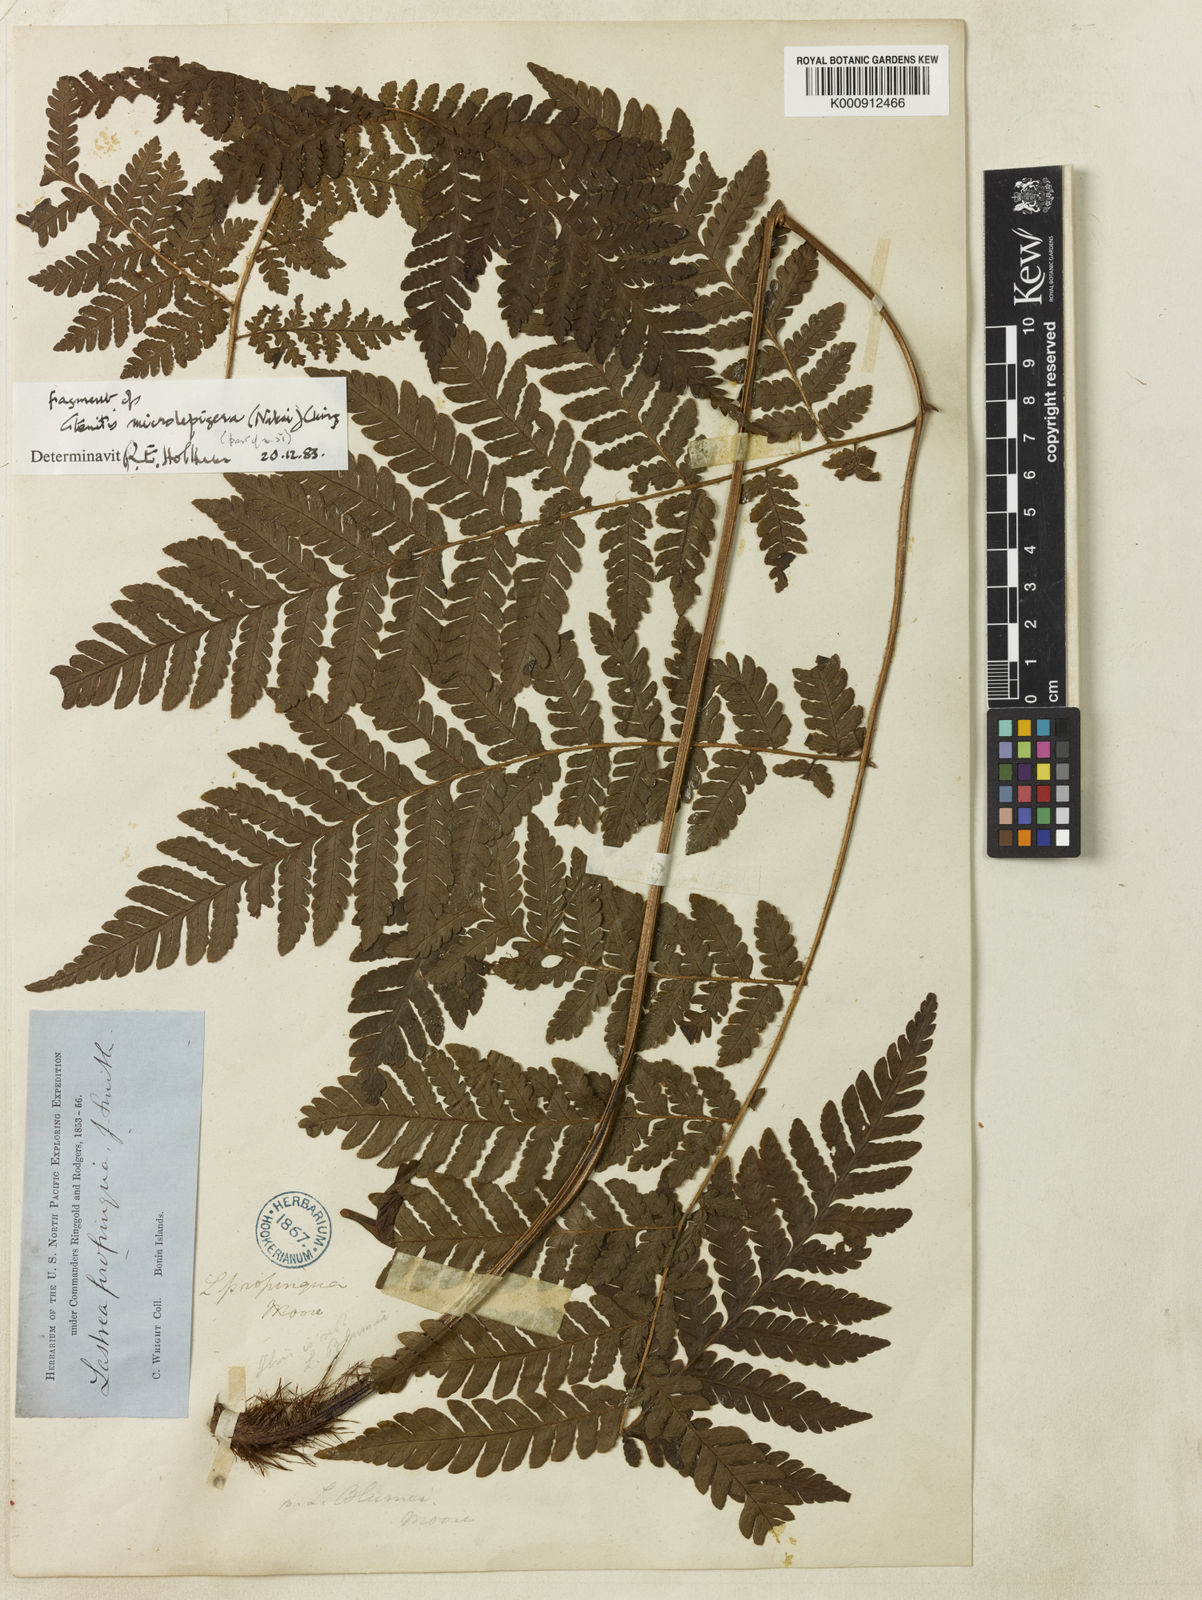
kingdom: Plantae
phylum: Tracheophyta
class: Polypodiopsida
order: Polypodiales
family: Dryopteridaceae
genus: Ctenitis
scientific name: Ctenitis subglandulosa
